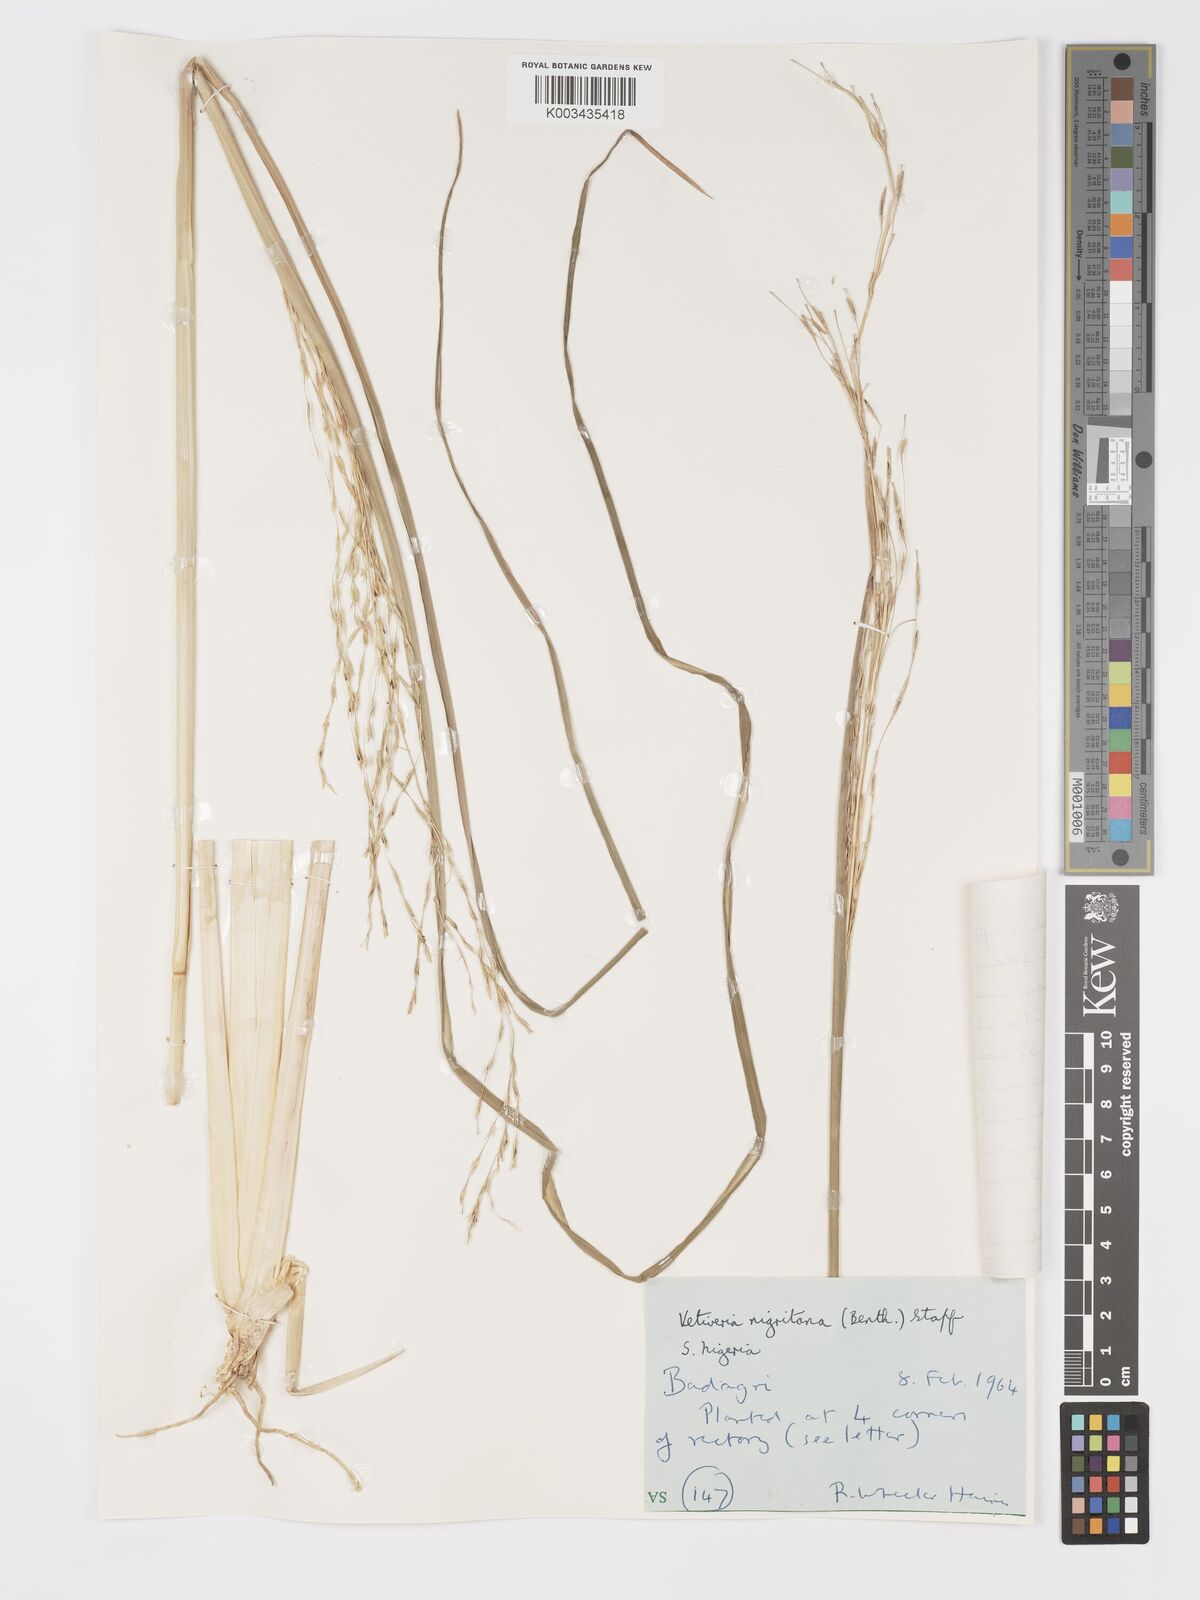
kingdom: Plantae
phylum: Tracheophyta
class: Liliopsida
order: Poales
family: Poaceae
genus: Chrysopogon
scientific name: Chrysopogon nigritanus
